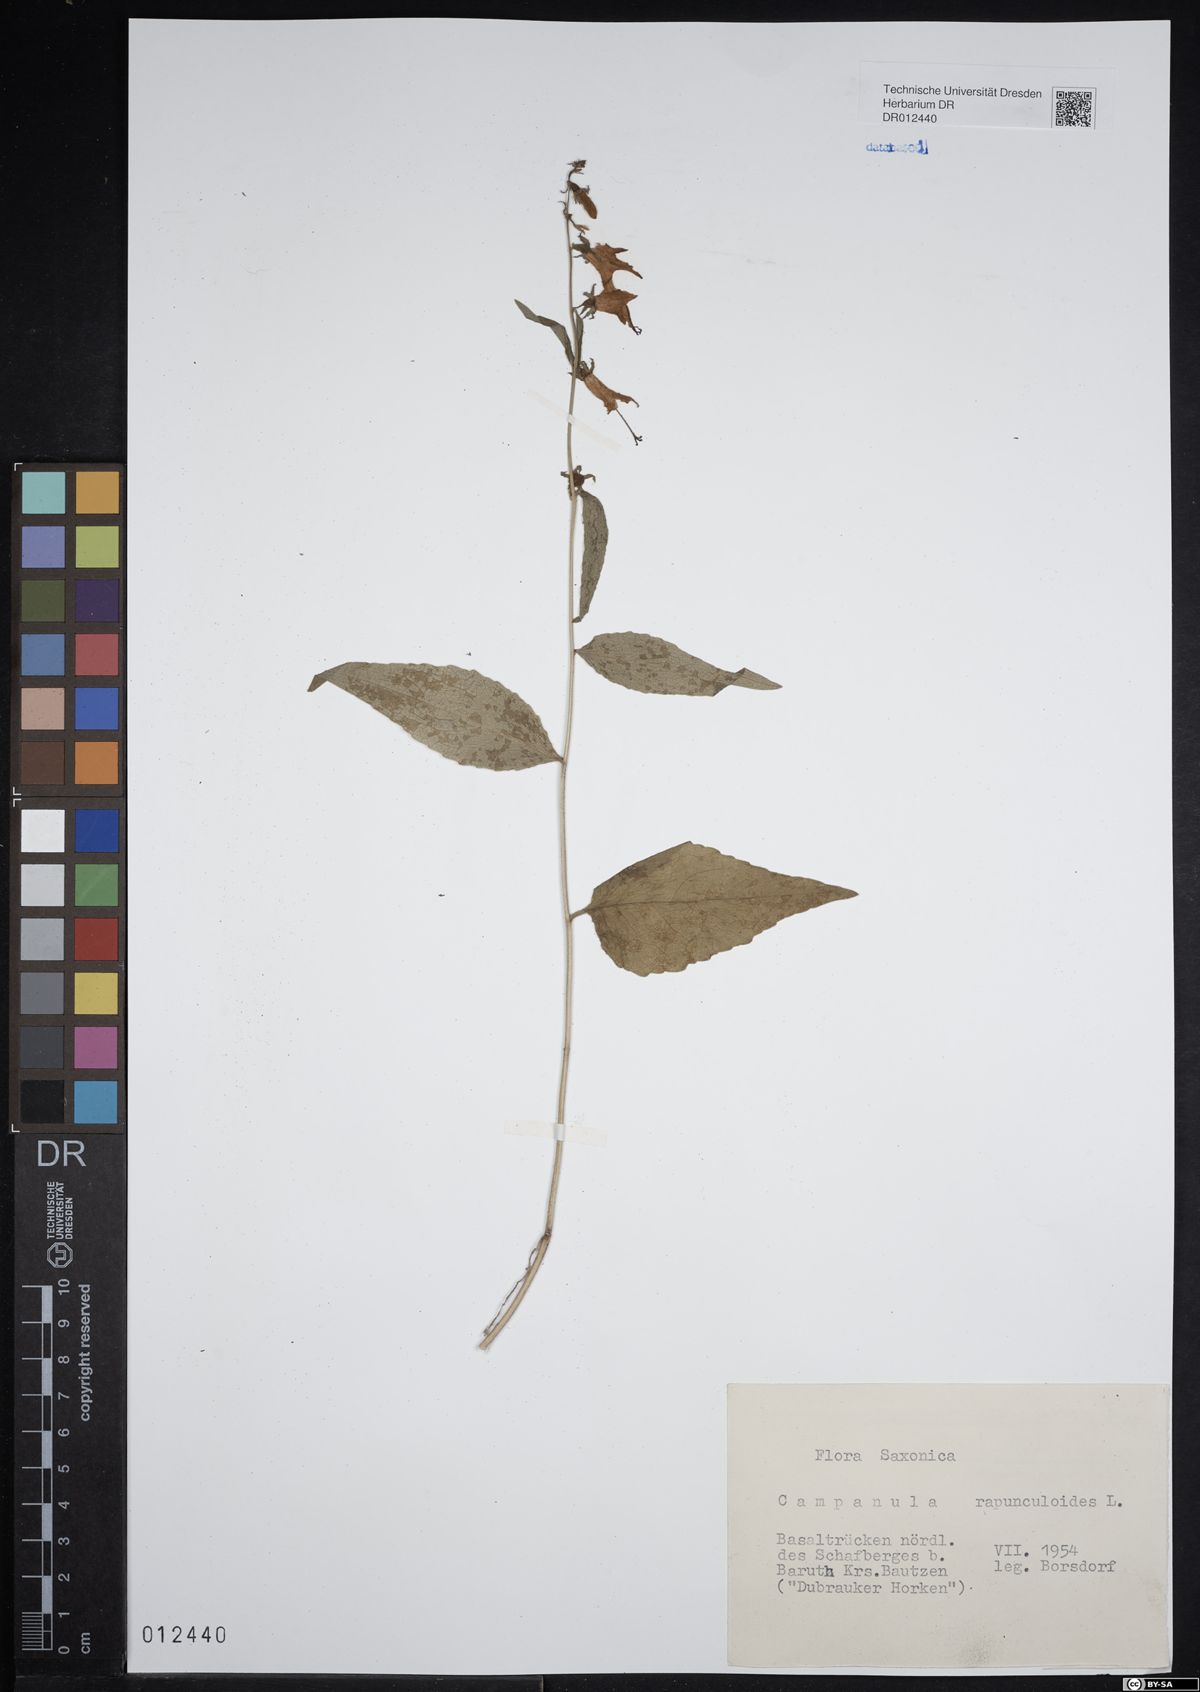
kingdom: Plantae
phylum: Tracheophyta
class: Magnoliopsida
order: Asterales
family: Campanulaceae
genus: Campanula
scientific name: Campanula rapunculoides
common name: Creeping bellflower
